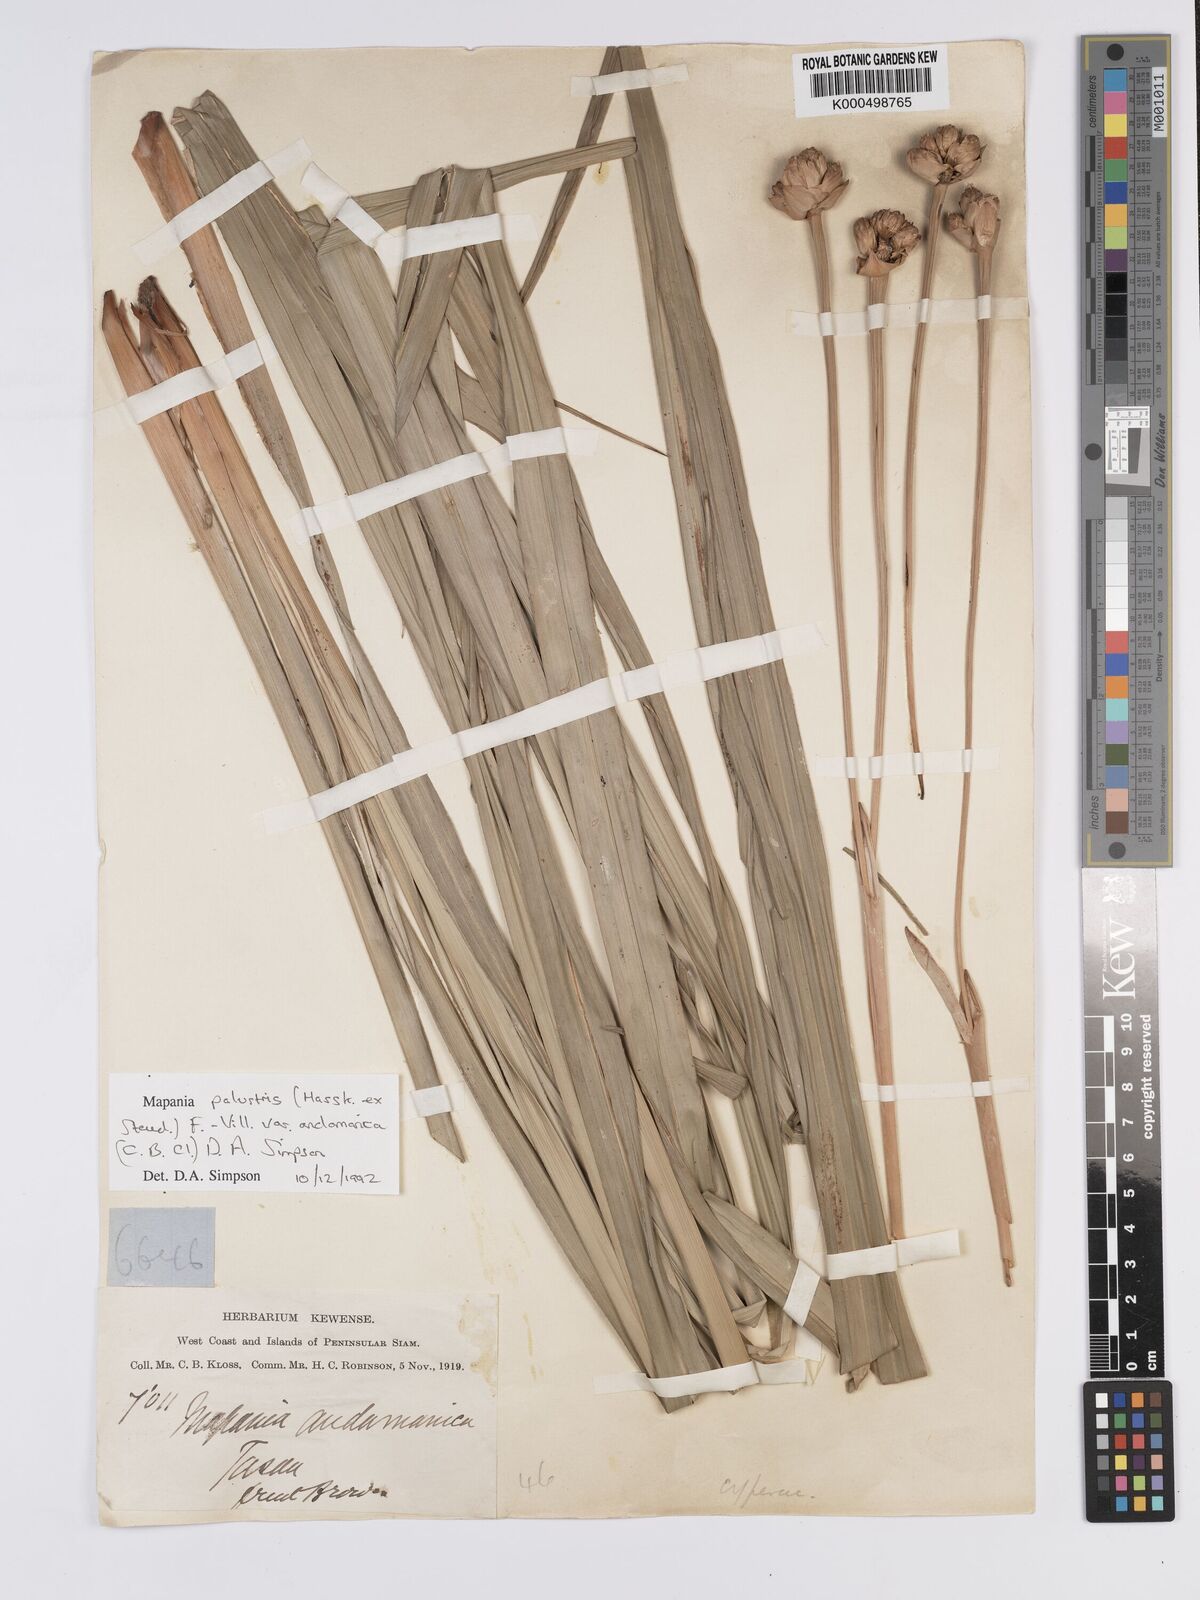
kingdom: Plantae
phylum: Tracheophyta
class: Liliopsida
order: Poales
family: Cyperaceae
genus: Mapania
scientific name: Mapania palustris
